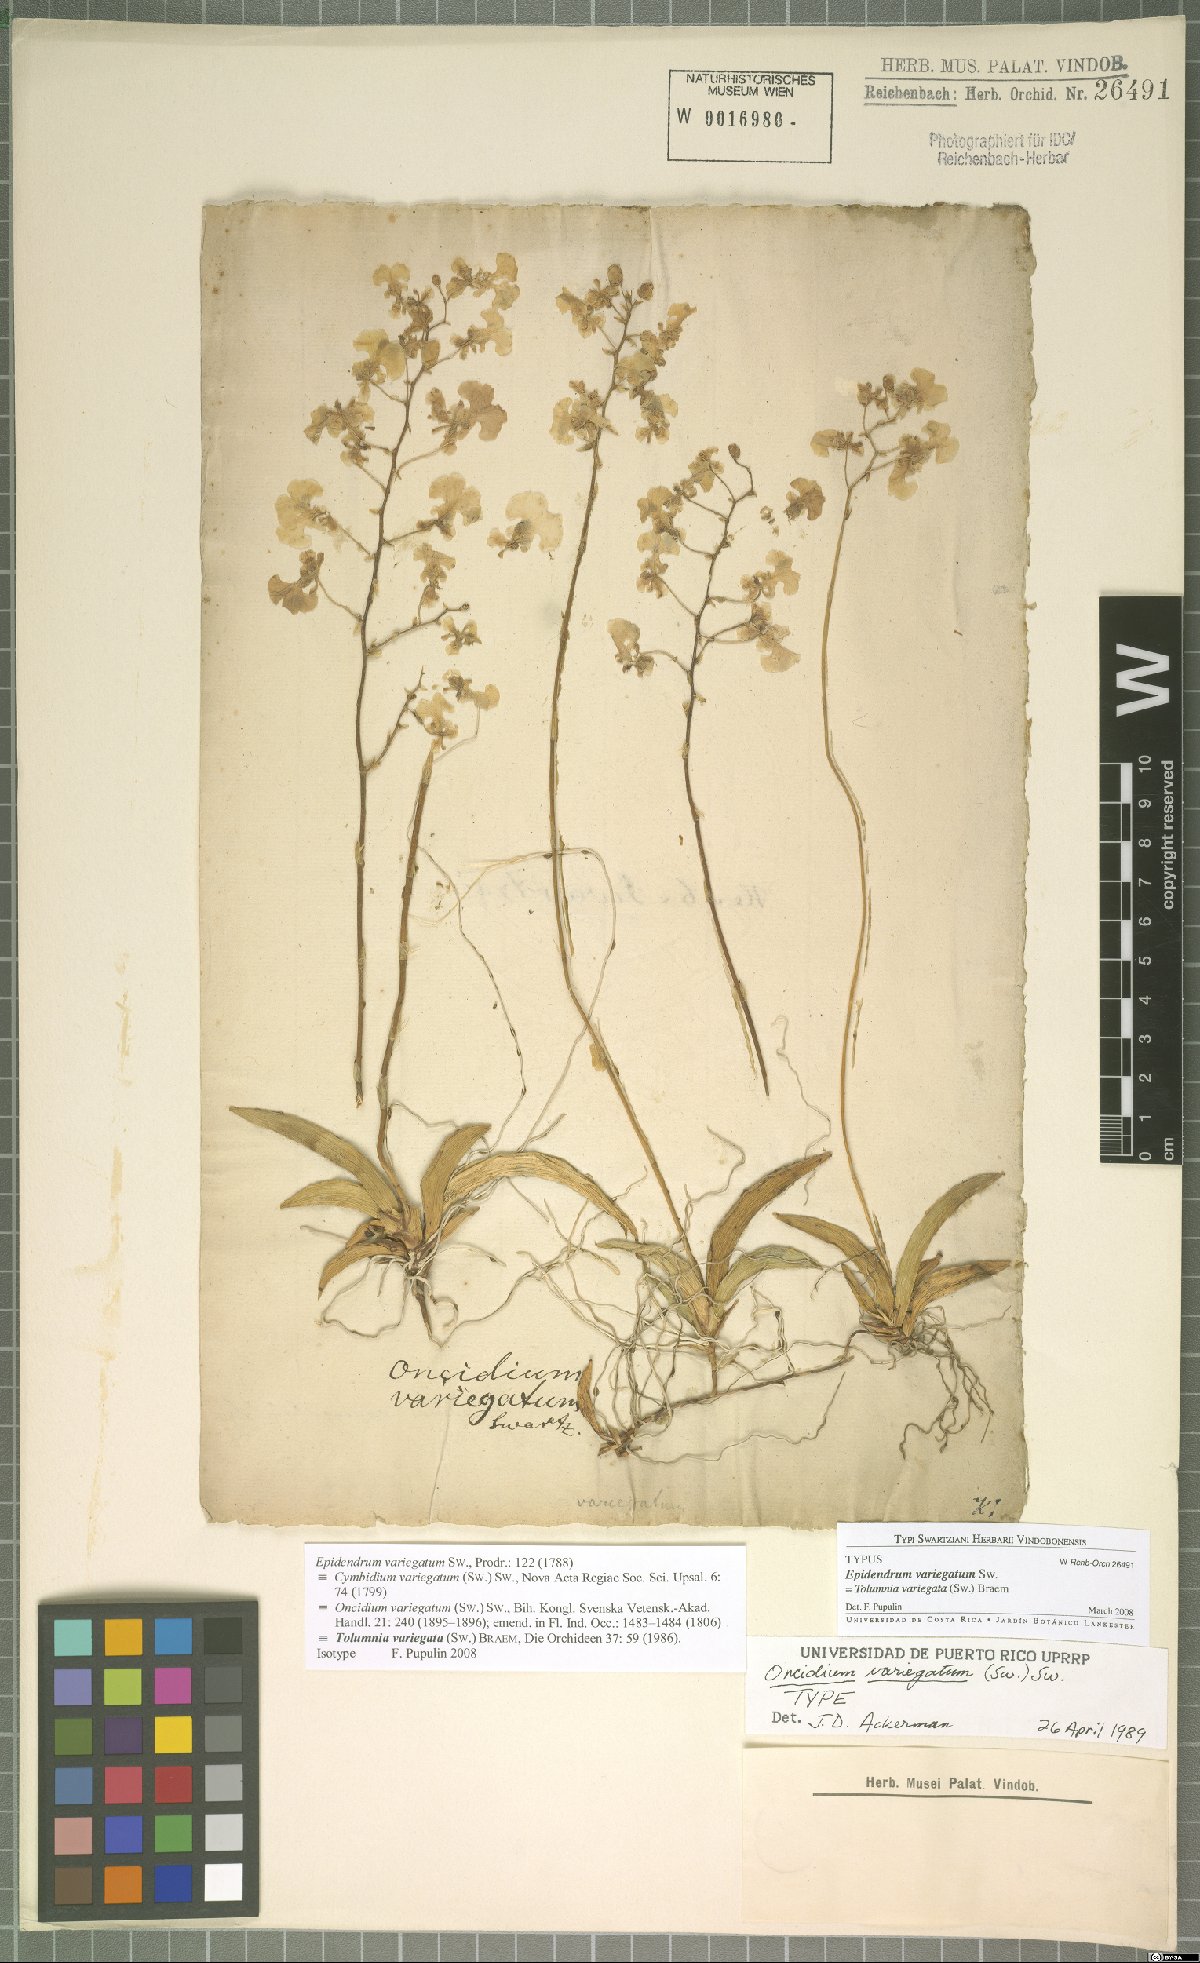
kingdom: Plantae
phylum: Tracheophyta
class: Liliopsida
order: Asparagales
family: Orchidaceae
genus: Tolumnia
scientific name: Tolumnia variegata
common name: Harlequin dancing-lady orchid
